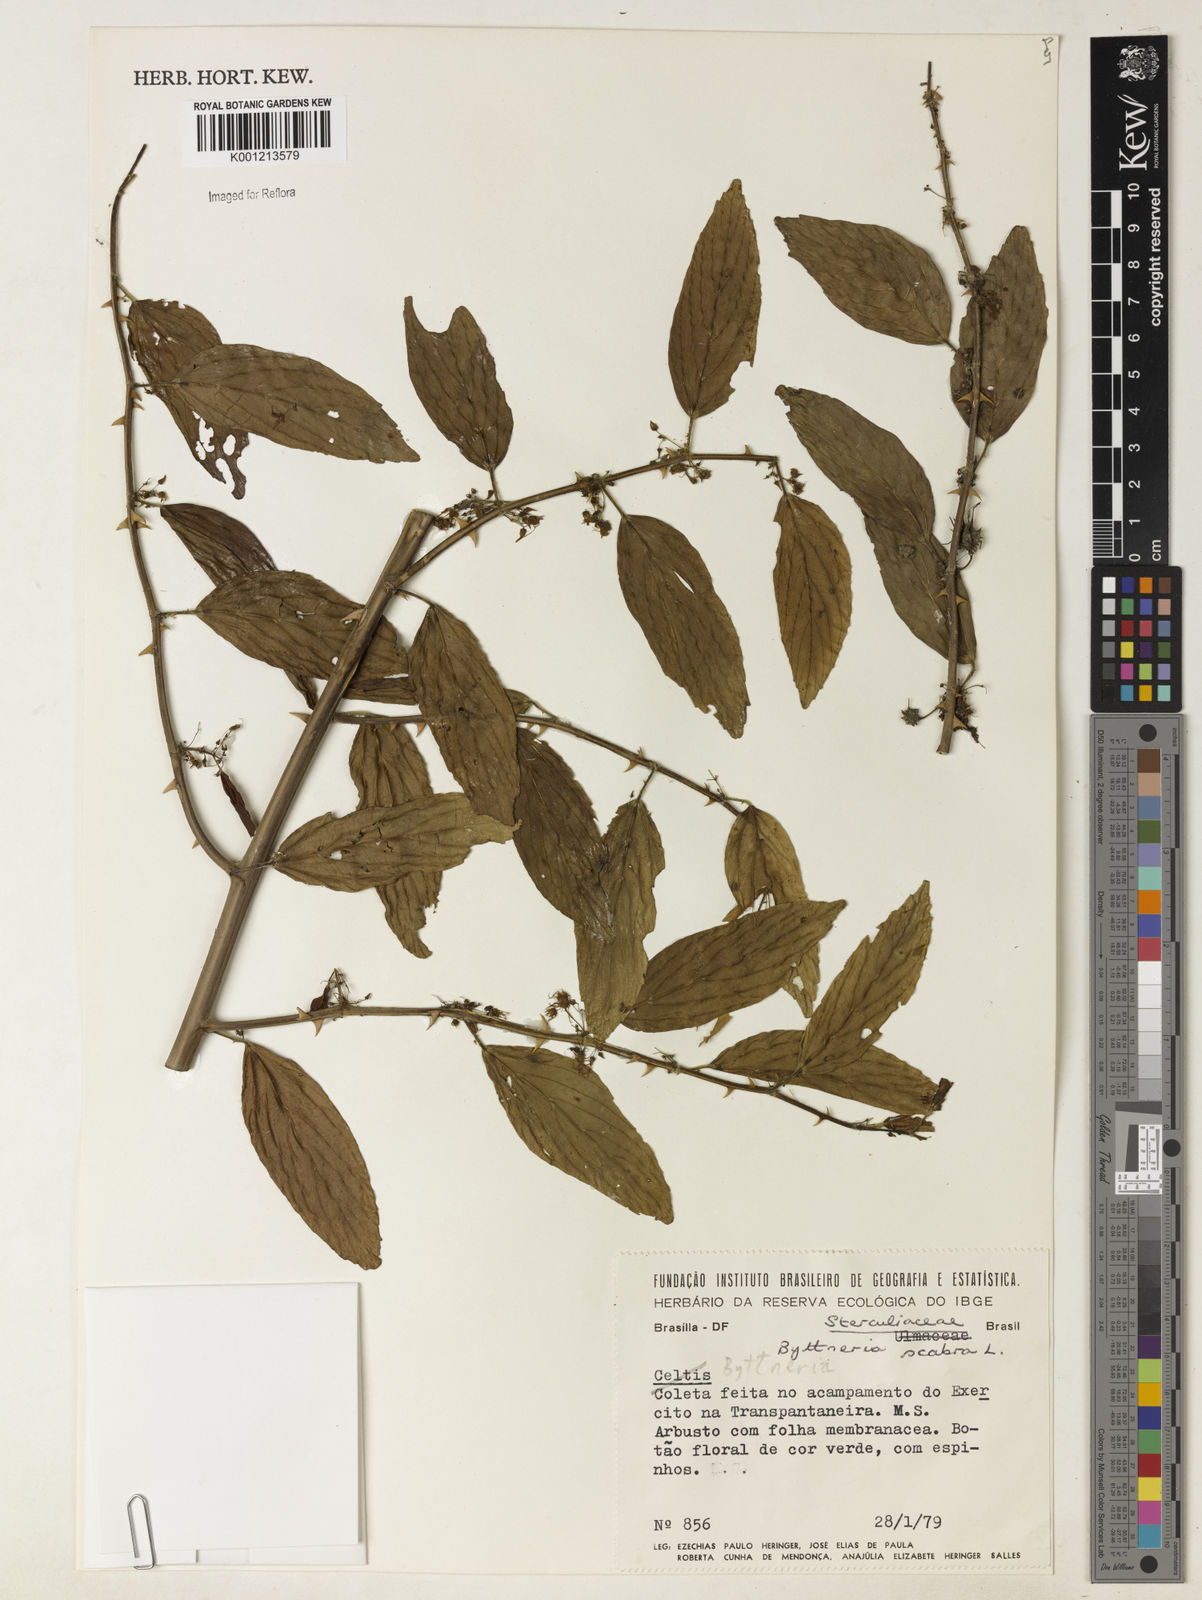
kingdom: Plantae
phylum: Tracheophyta
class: Magnoliopsida
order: Malvales
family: Malvaceae
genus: Byttneria
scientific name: Byttneria
